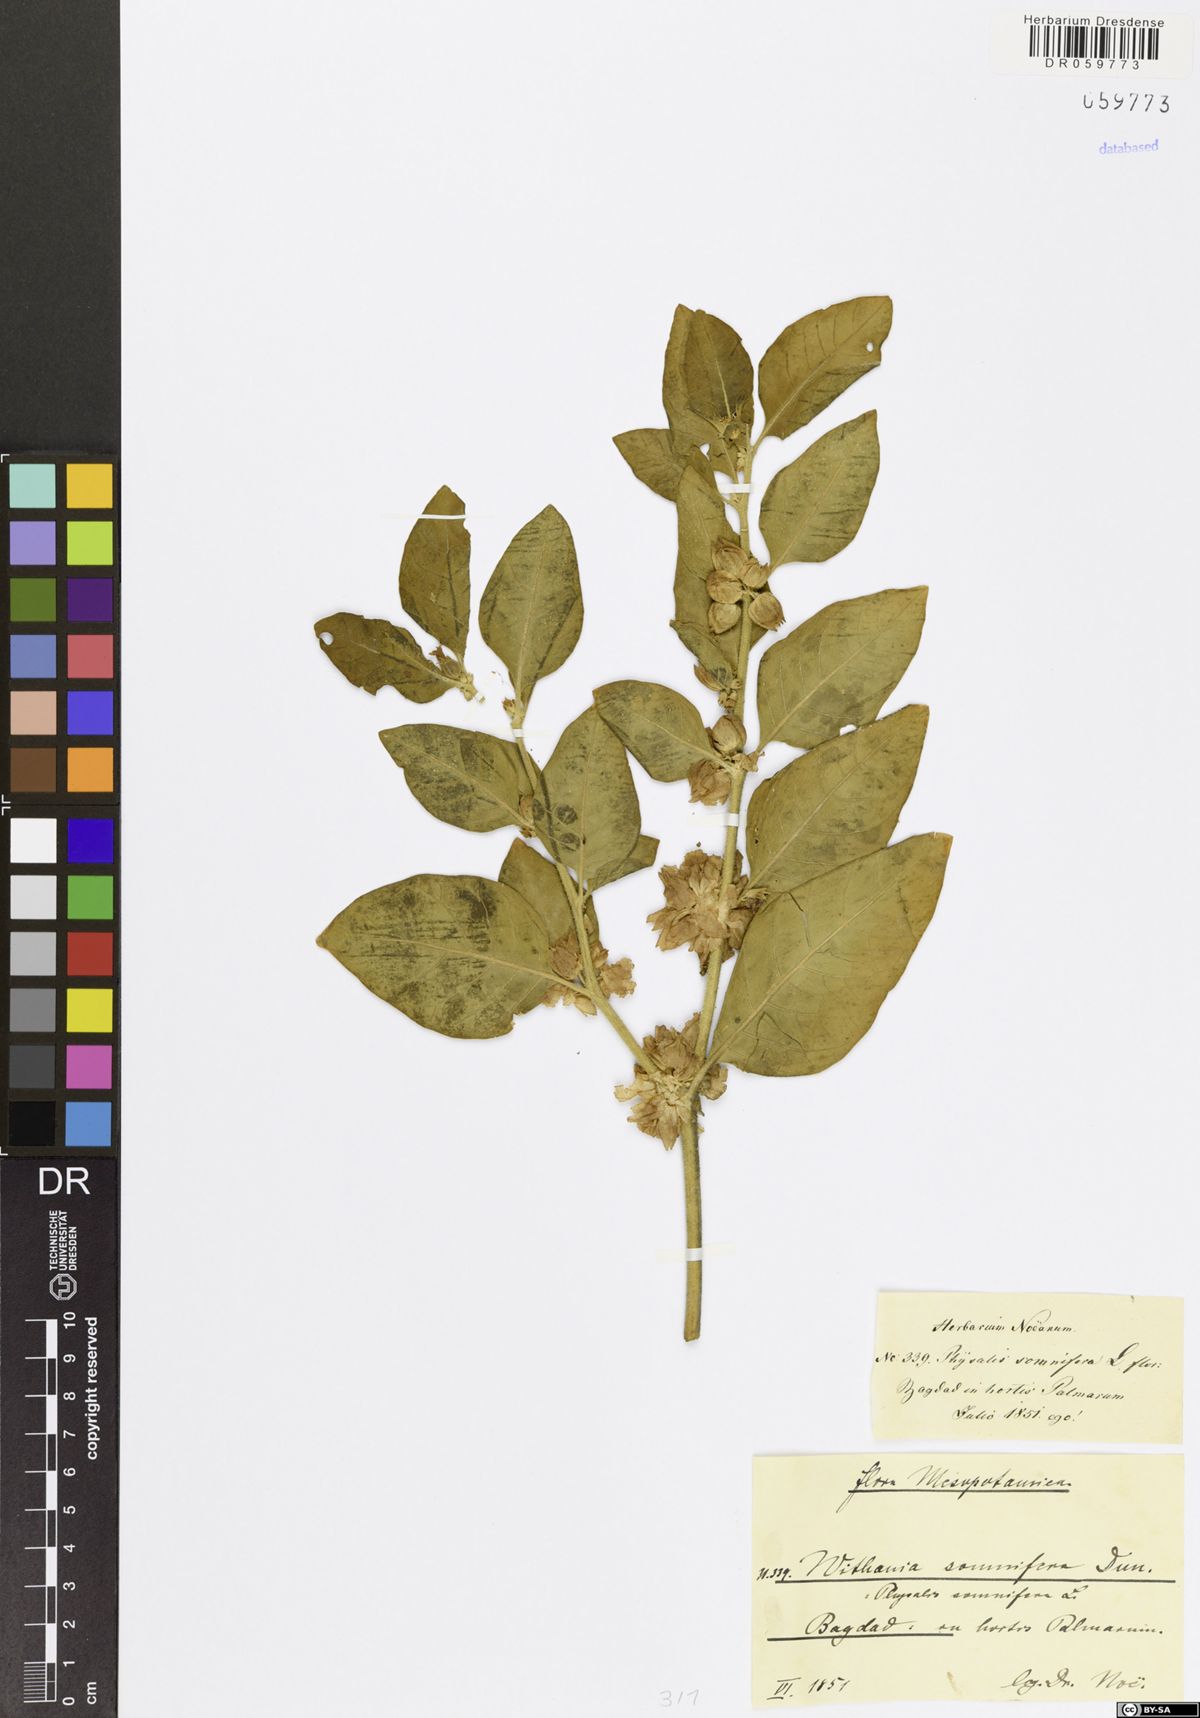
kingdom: Plantae
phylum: Tracheophyta
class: Magnoliopsida
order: Solanales
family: Solanaceae
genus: Withania
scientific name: Withania somnifera
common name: Winter-cherry
